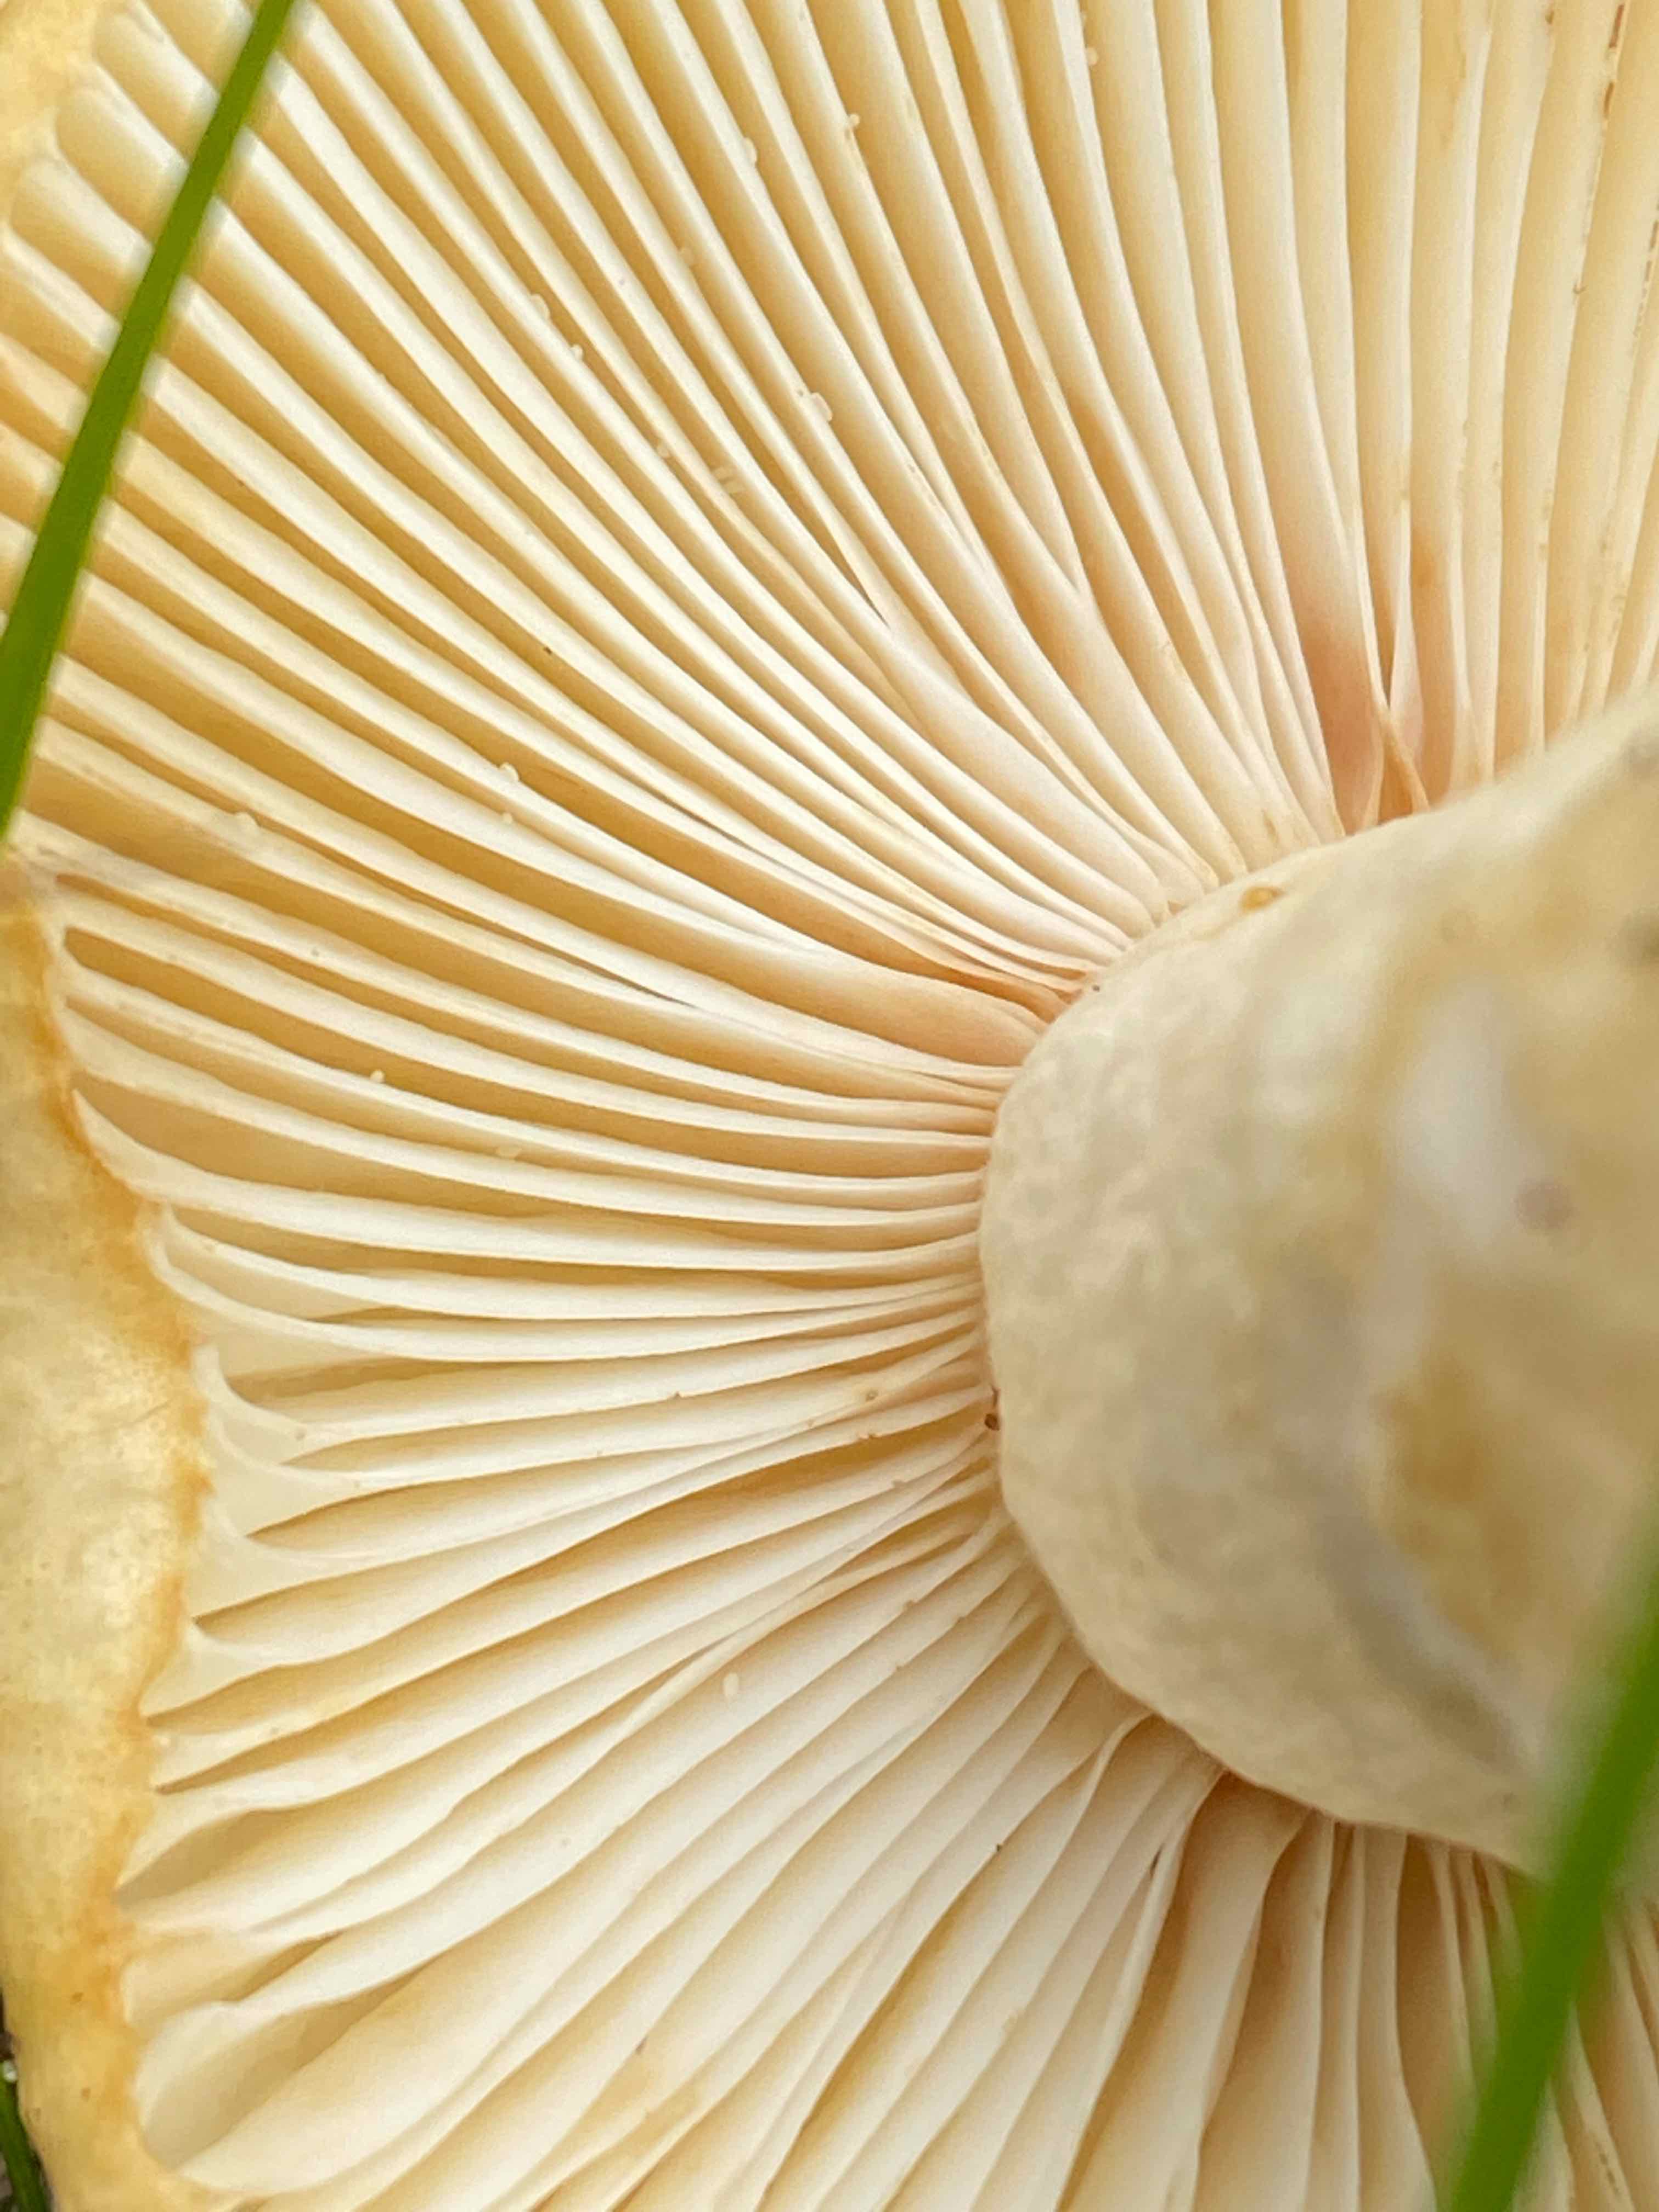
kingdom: Fungi
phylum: Basidiomycota
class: Agaricomycetes
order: Russulales
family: Russulaceae
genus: Russula
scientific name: Russula ochroleuca
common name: okkergul skørhat
